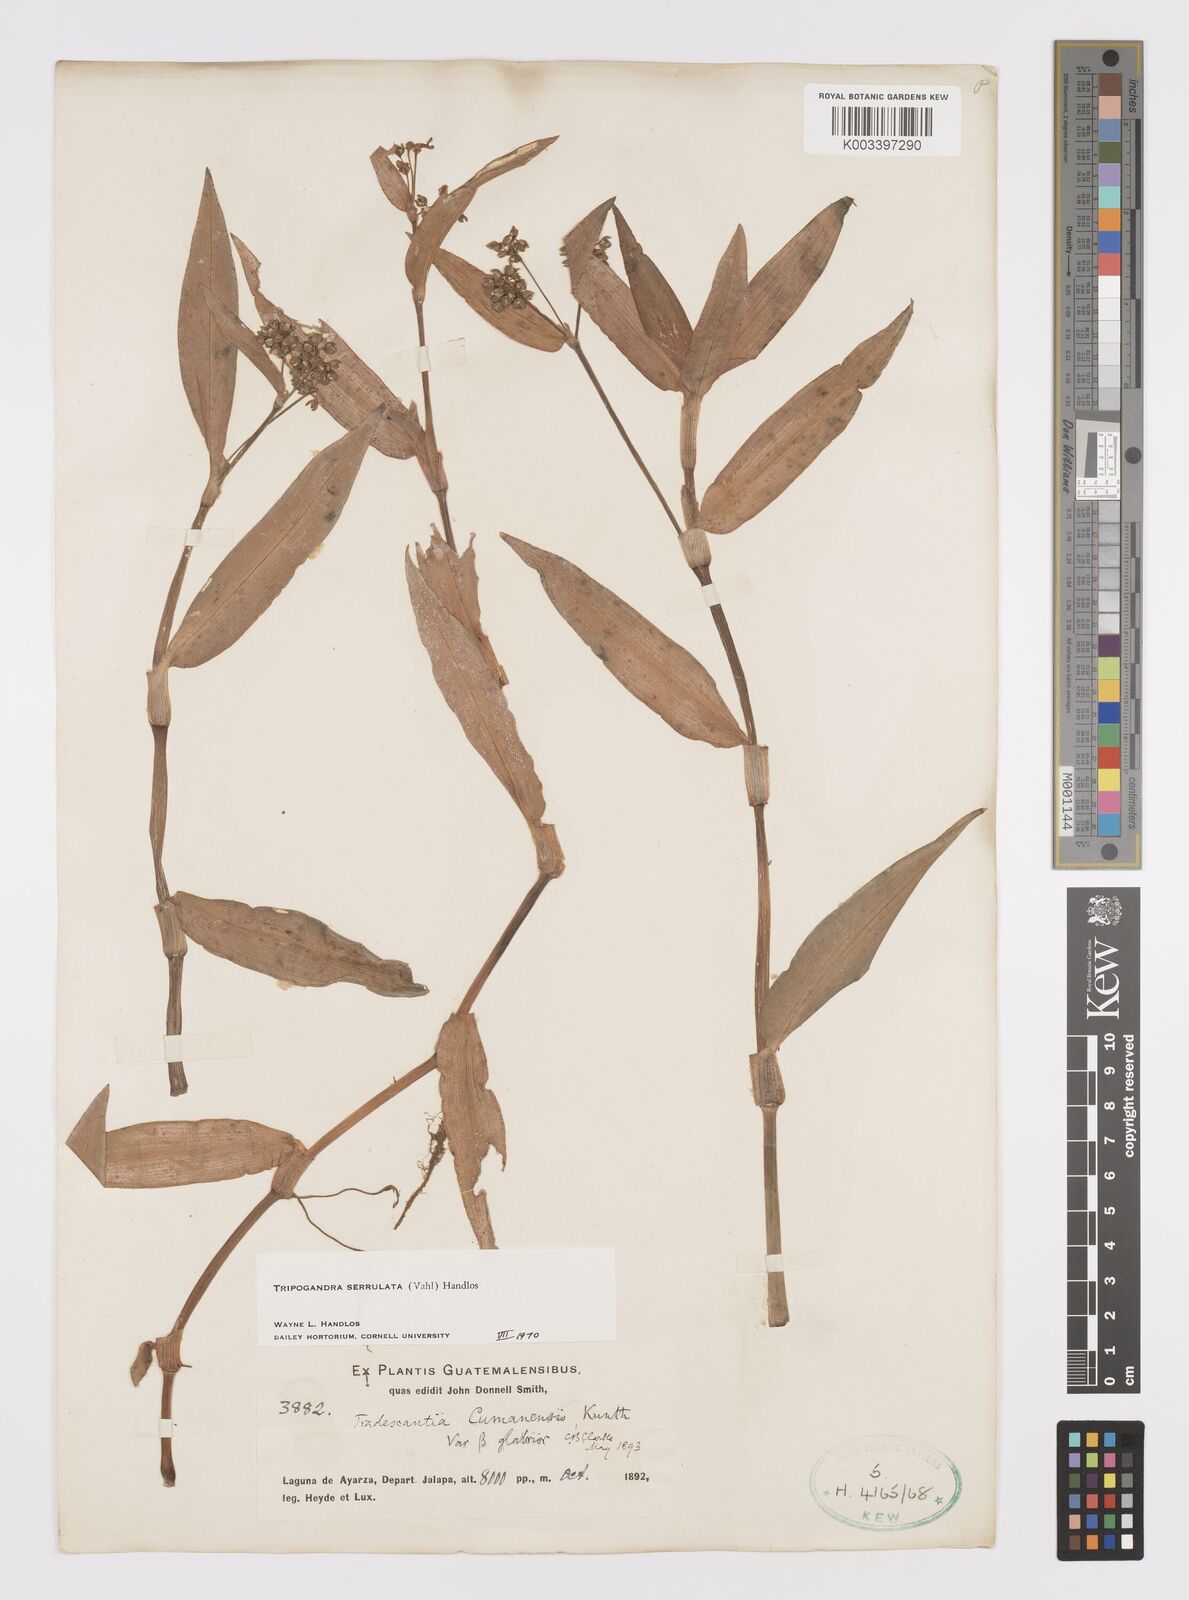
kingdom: Plantae
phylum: Tracheophyta
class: Liliopsida
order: Commelinales
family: Commelinaceae
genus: Callisia
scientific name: Callisia serrulata
